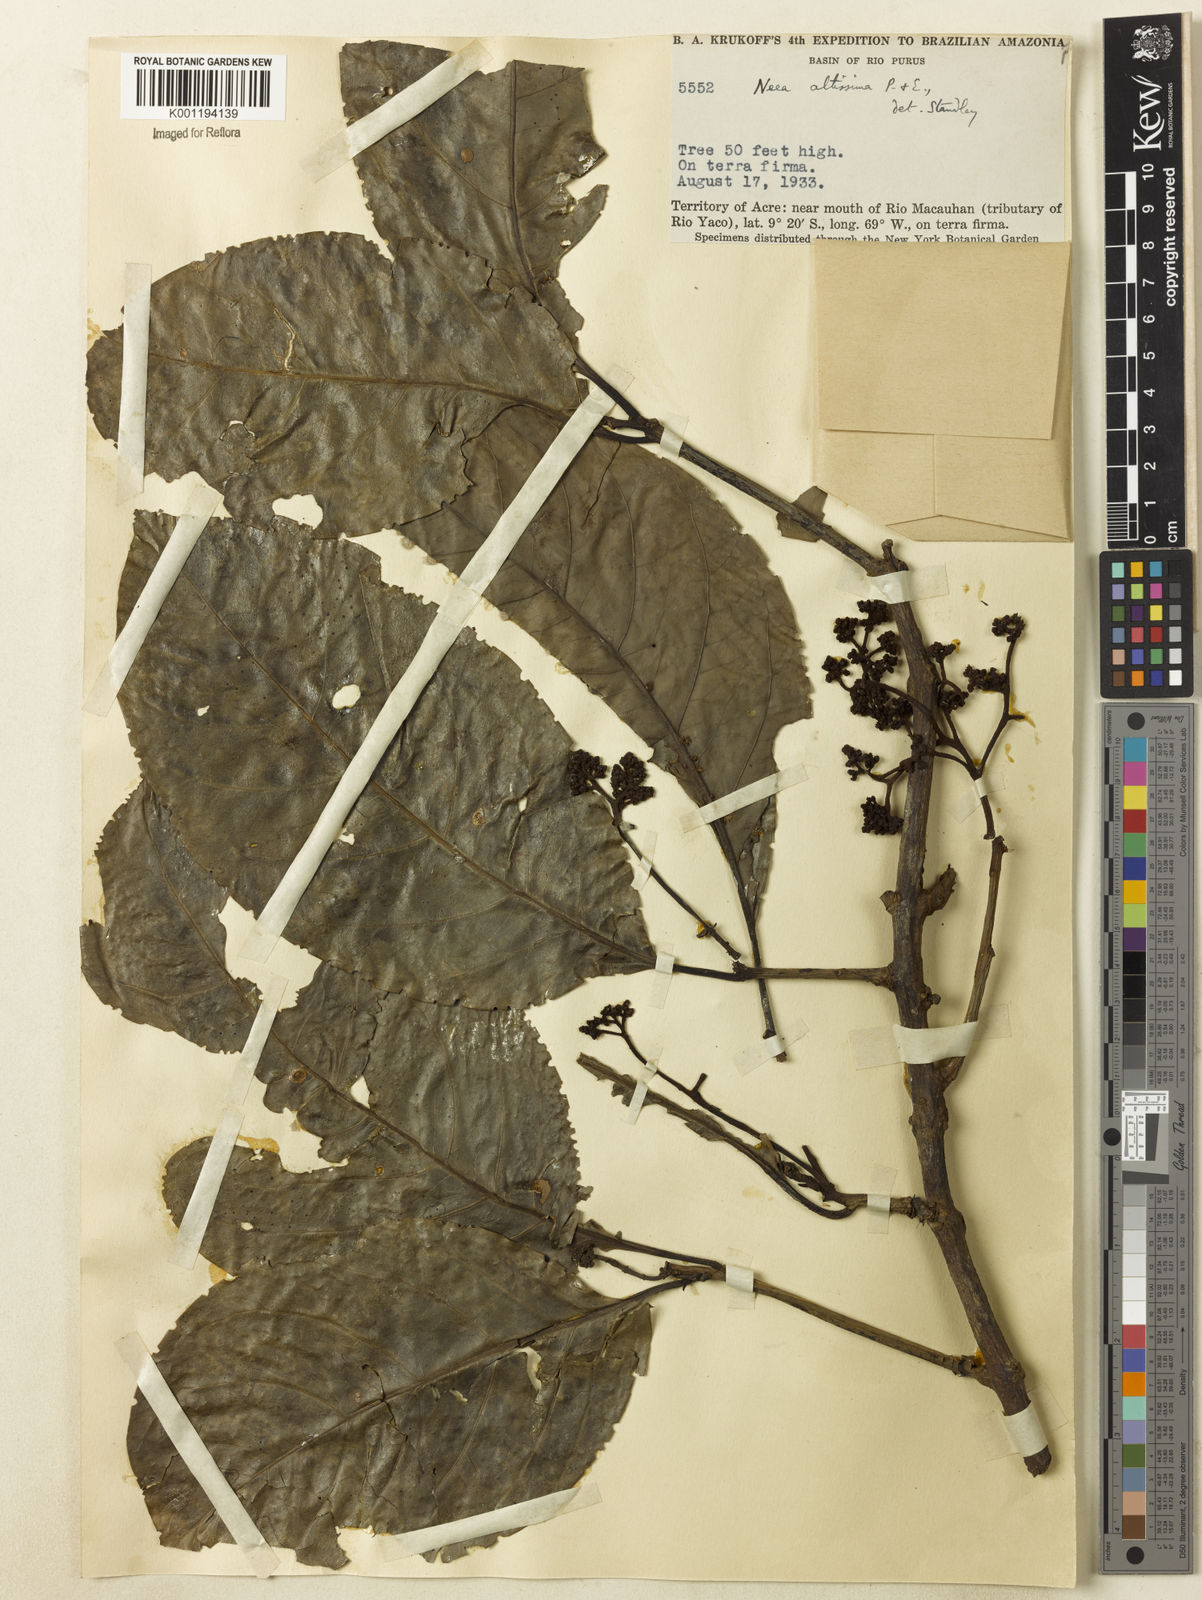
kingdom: Plantae
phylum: Tracheophyta
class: Magnoliopsida
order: Caryophyllales
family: Nyctaginaceae
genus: Neea
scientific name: Neea altissima
